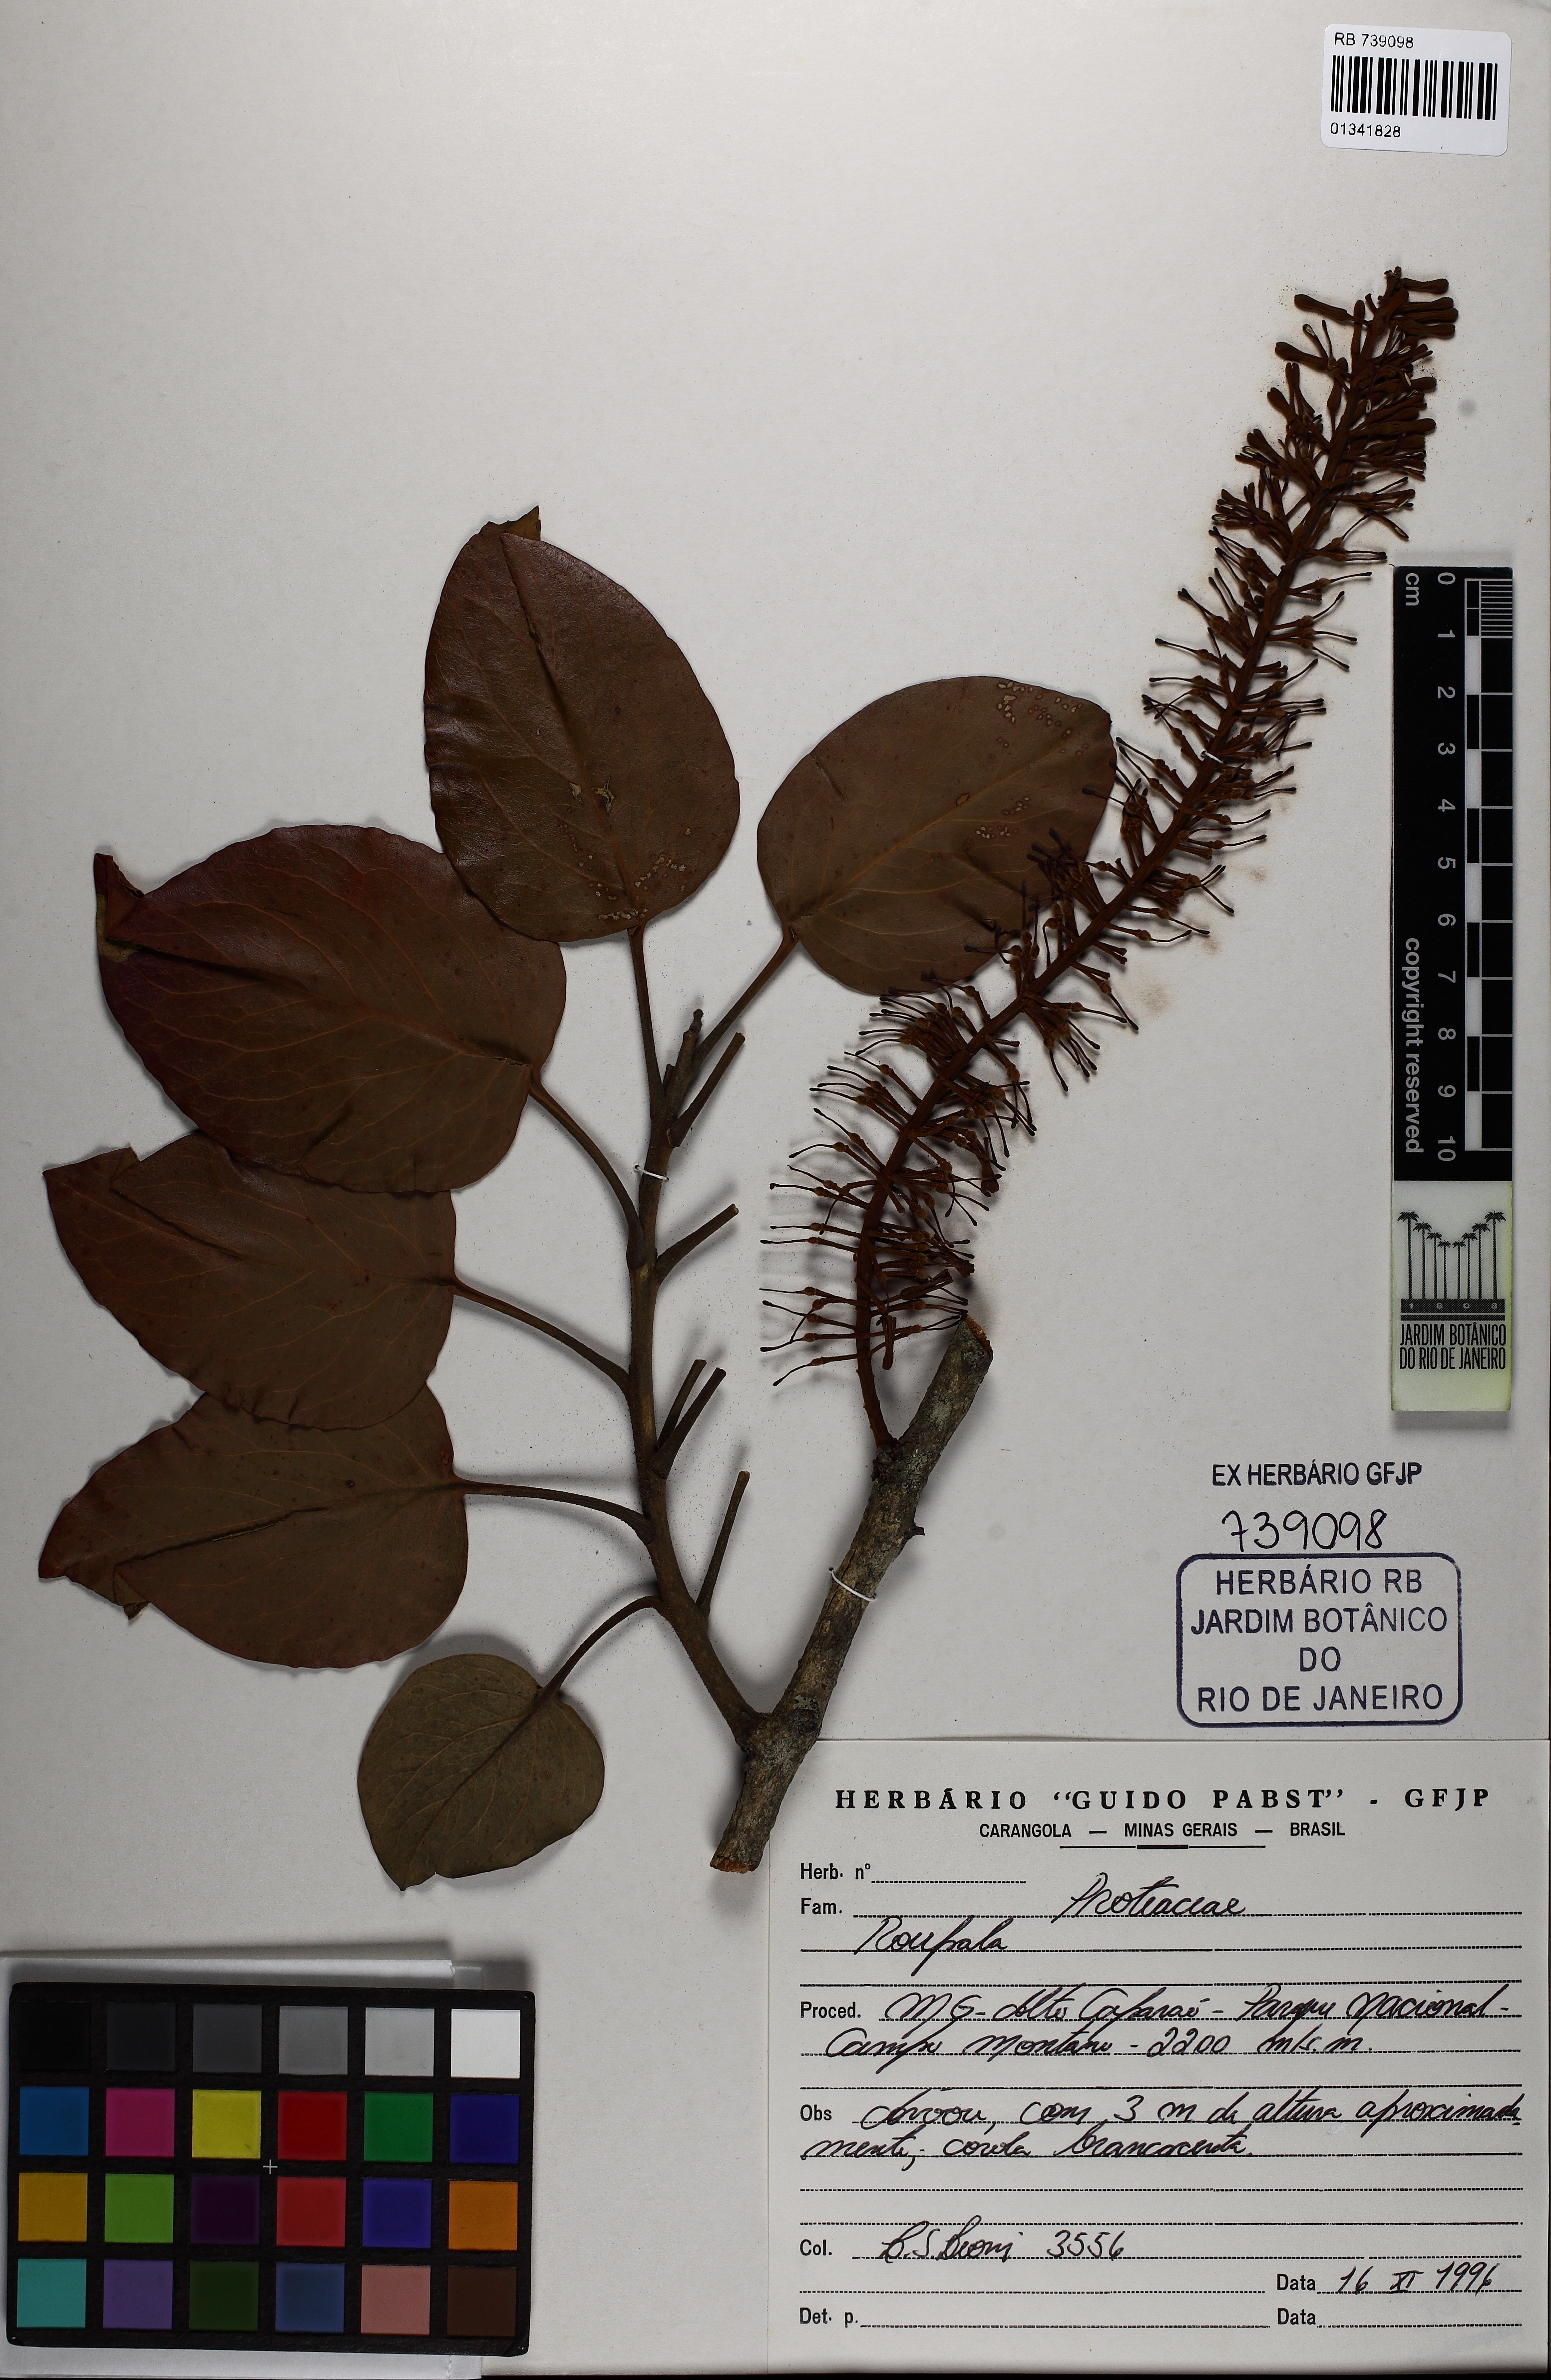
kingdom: Plantae
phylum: Tracheophyta
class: Magnoliopsida
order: Proteales
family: Proteaceae
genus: Roupala
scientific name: Roupala
